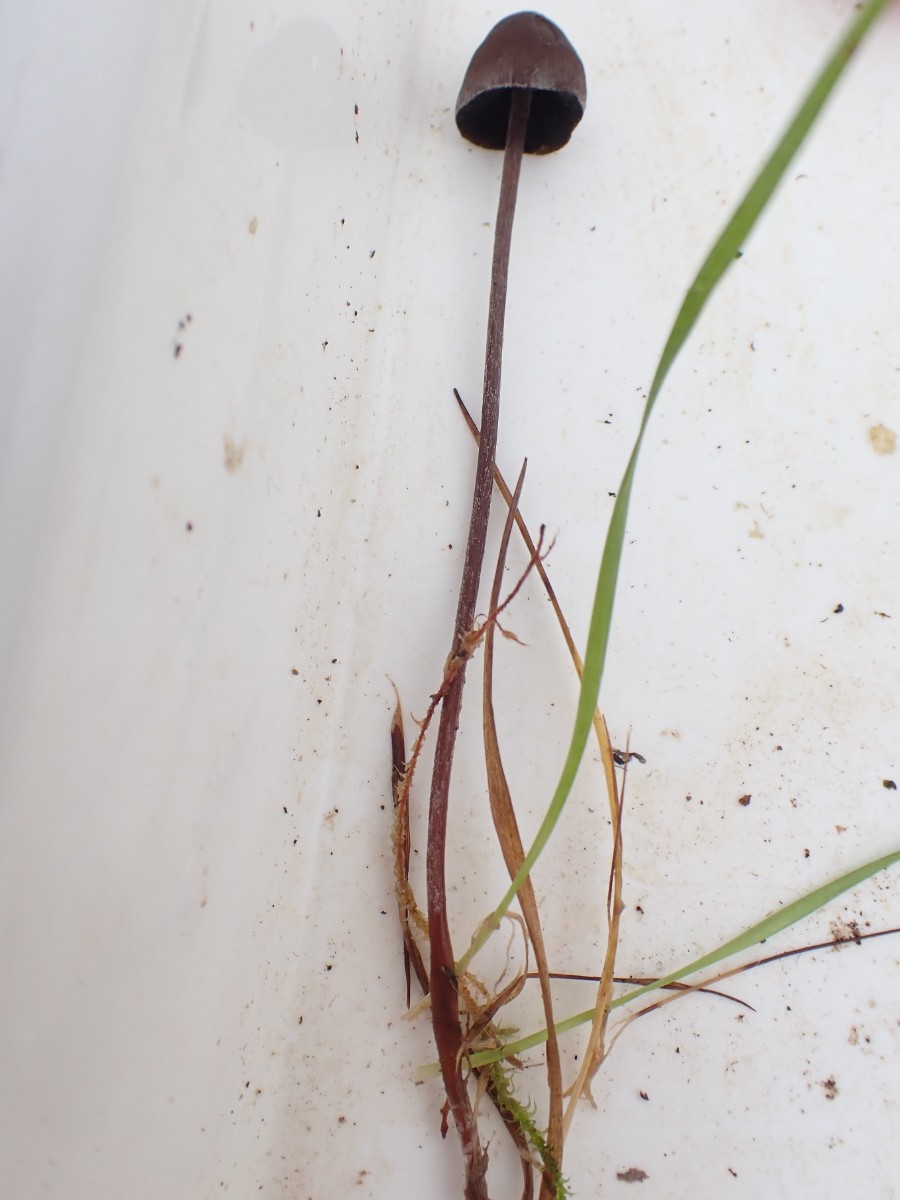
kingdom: Fungi
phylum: Basidiomycota
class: Agaricomycetes
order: Agaricales
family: Bolbitiaceae
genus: Panaeolus
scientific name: Panaeolus acuminatus
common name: høj glanshat
